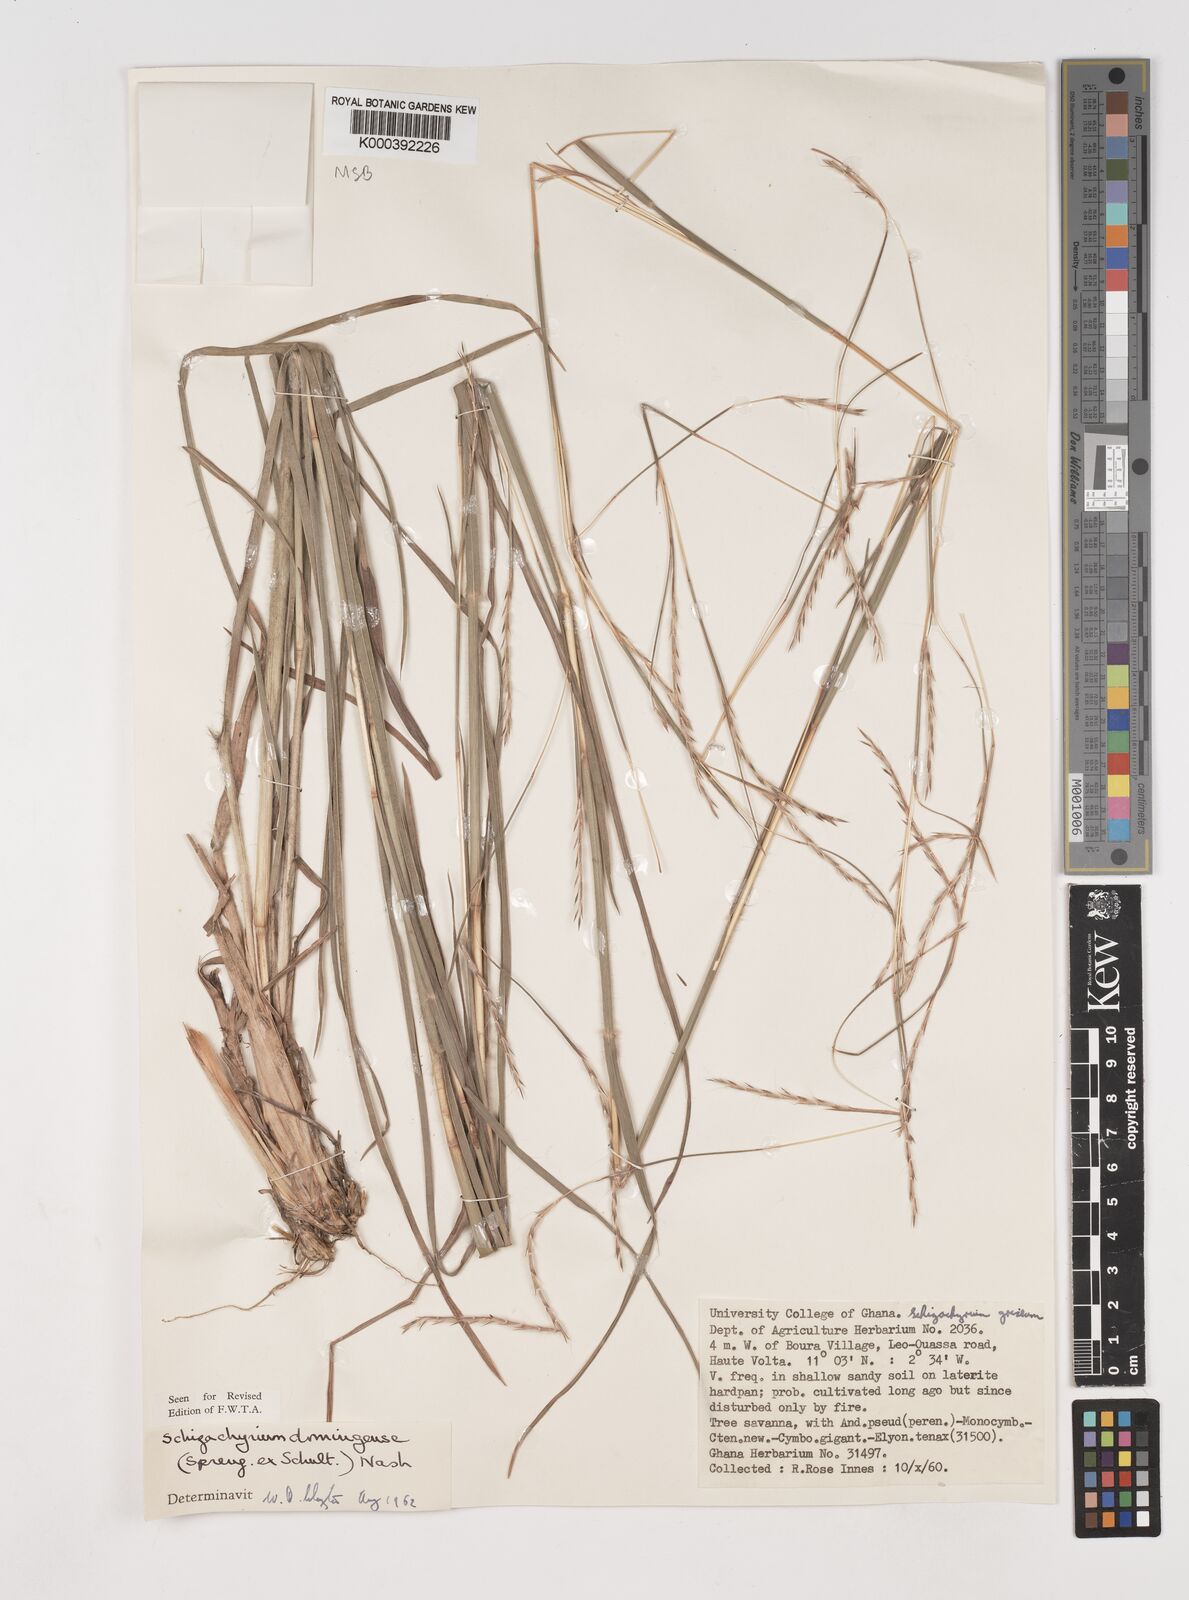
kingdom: Plantae
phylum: Tracheophyta
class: Liliopsida
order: Poales
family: Poaceae
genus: Schizachyrium
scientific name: Schizachyrium sanguineum
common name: Crimson bluestem
